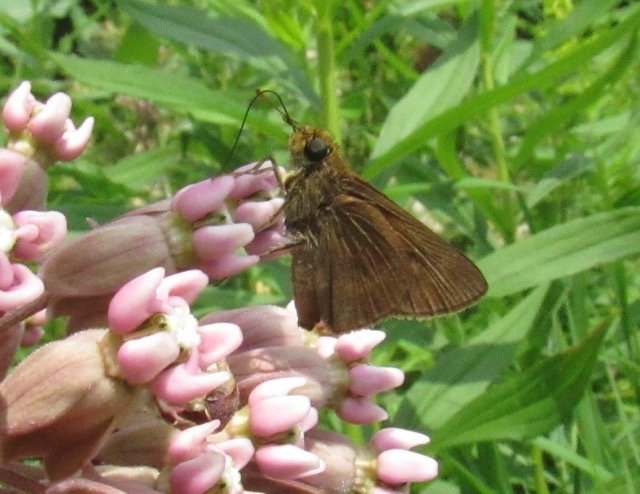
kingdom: Animalia
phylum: Arthropoda
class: Insecta
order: Lepidoptera
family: Hesperiidae
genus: Polites
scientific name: Polites egeremet
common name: Northern Broken-Dash
